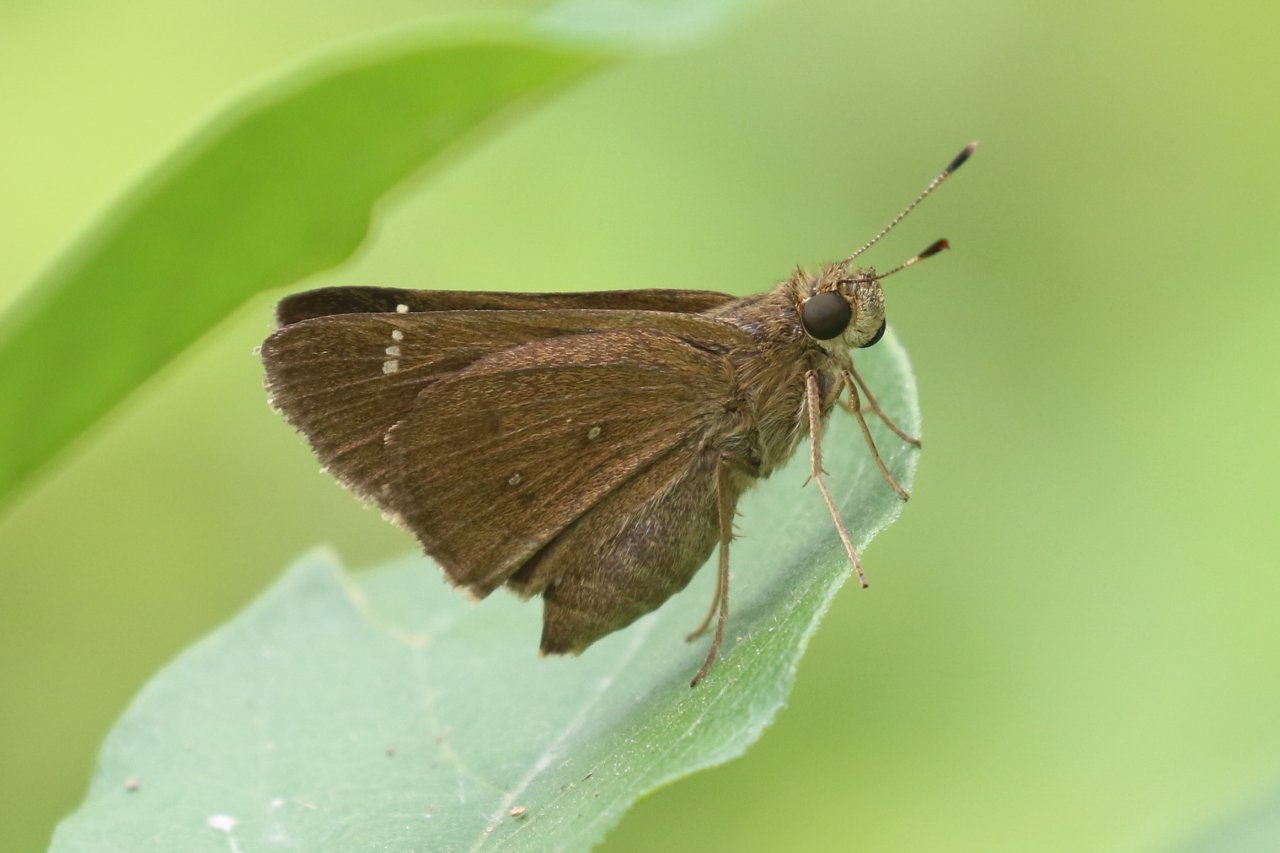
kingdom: Animalia
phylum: Arthropoda
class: Insecta
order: Lepidoptera
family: Hesperiidae
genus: Decinea
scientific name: Decinea percosius
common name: Double-dotted Skipper
